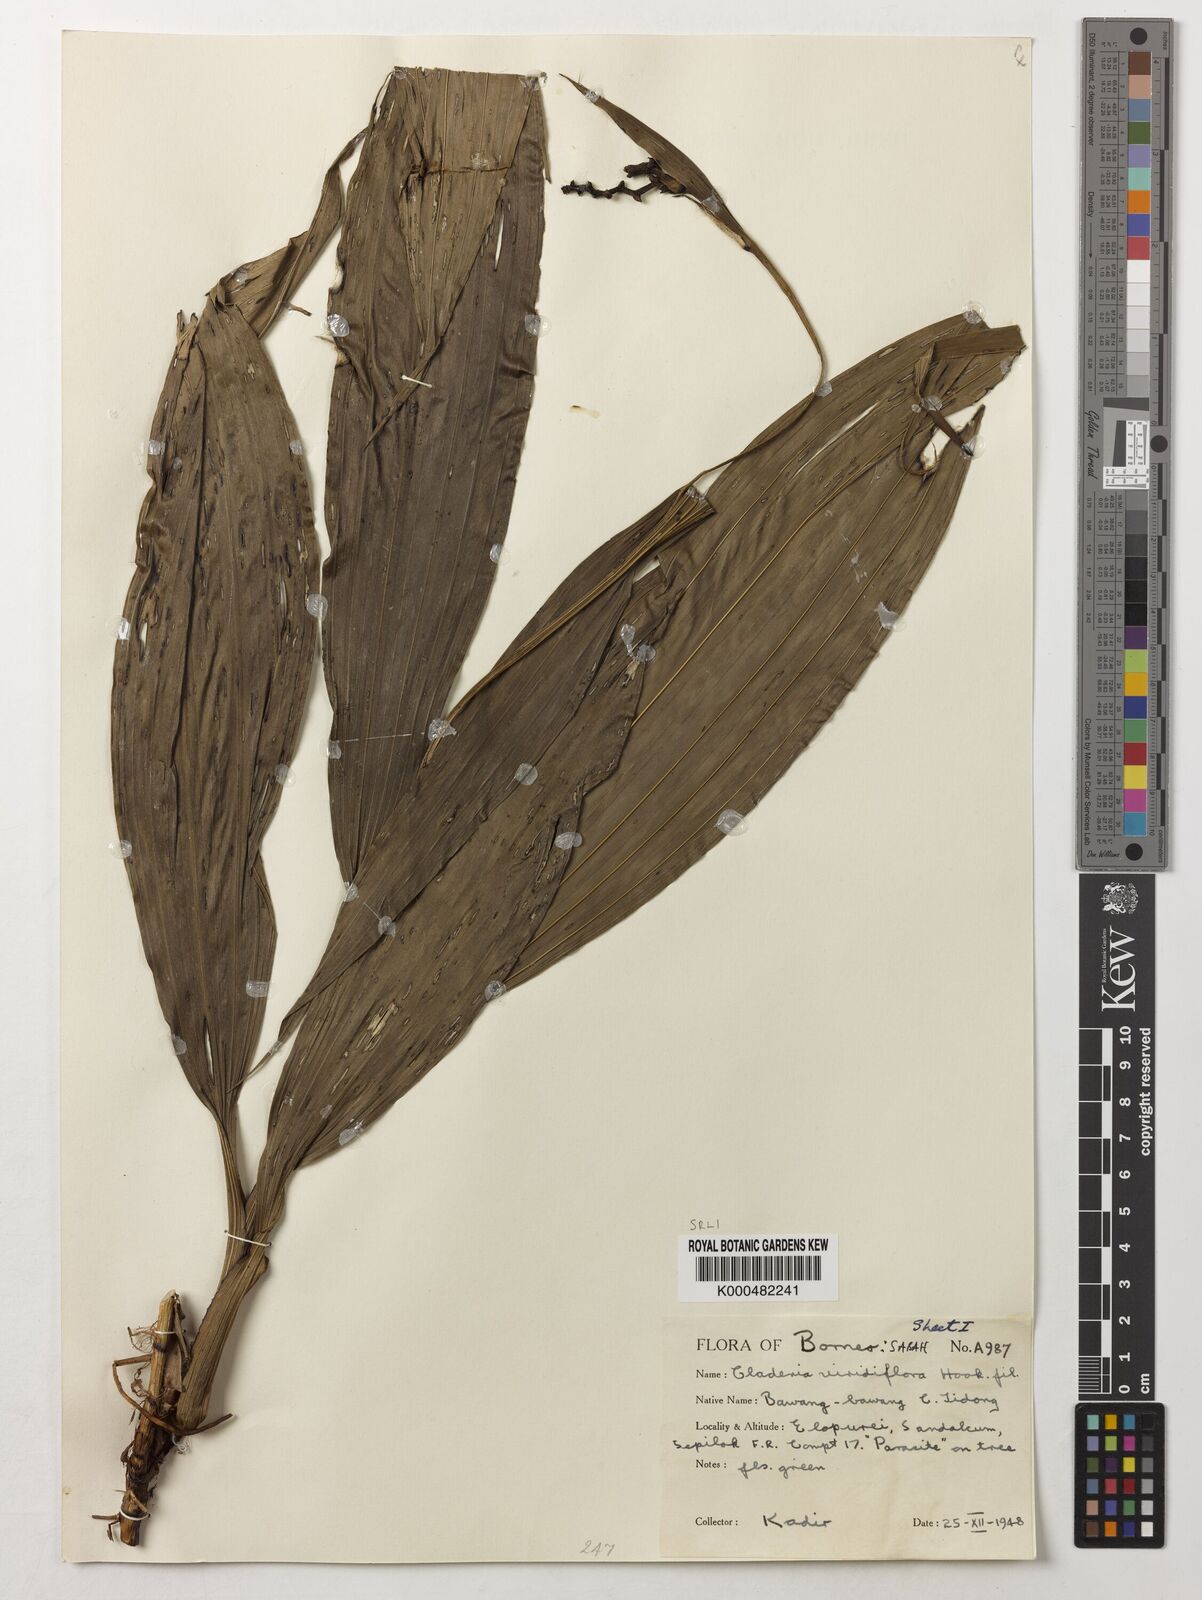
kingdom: Plantae
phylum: Tracheophyta
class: Liliopsida
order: Asparagales
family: Orchidaceae
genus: Claderia
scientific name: Claderia
